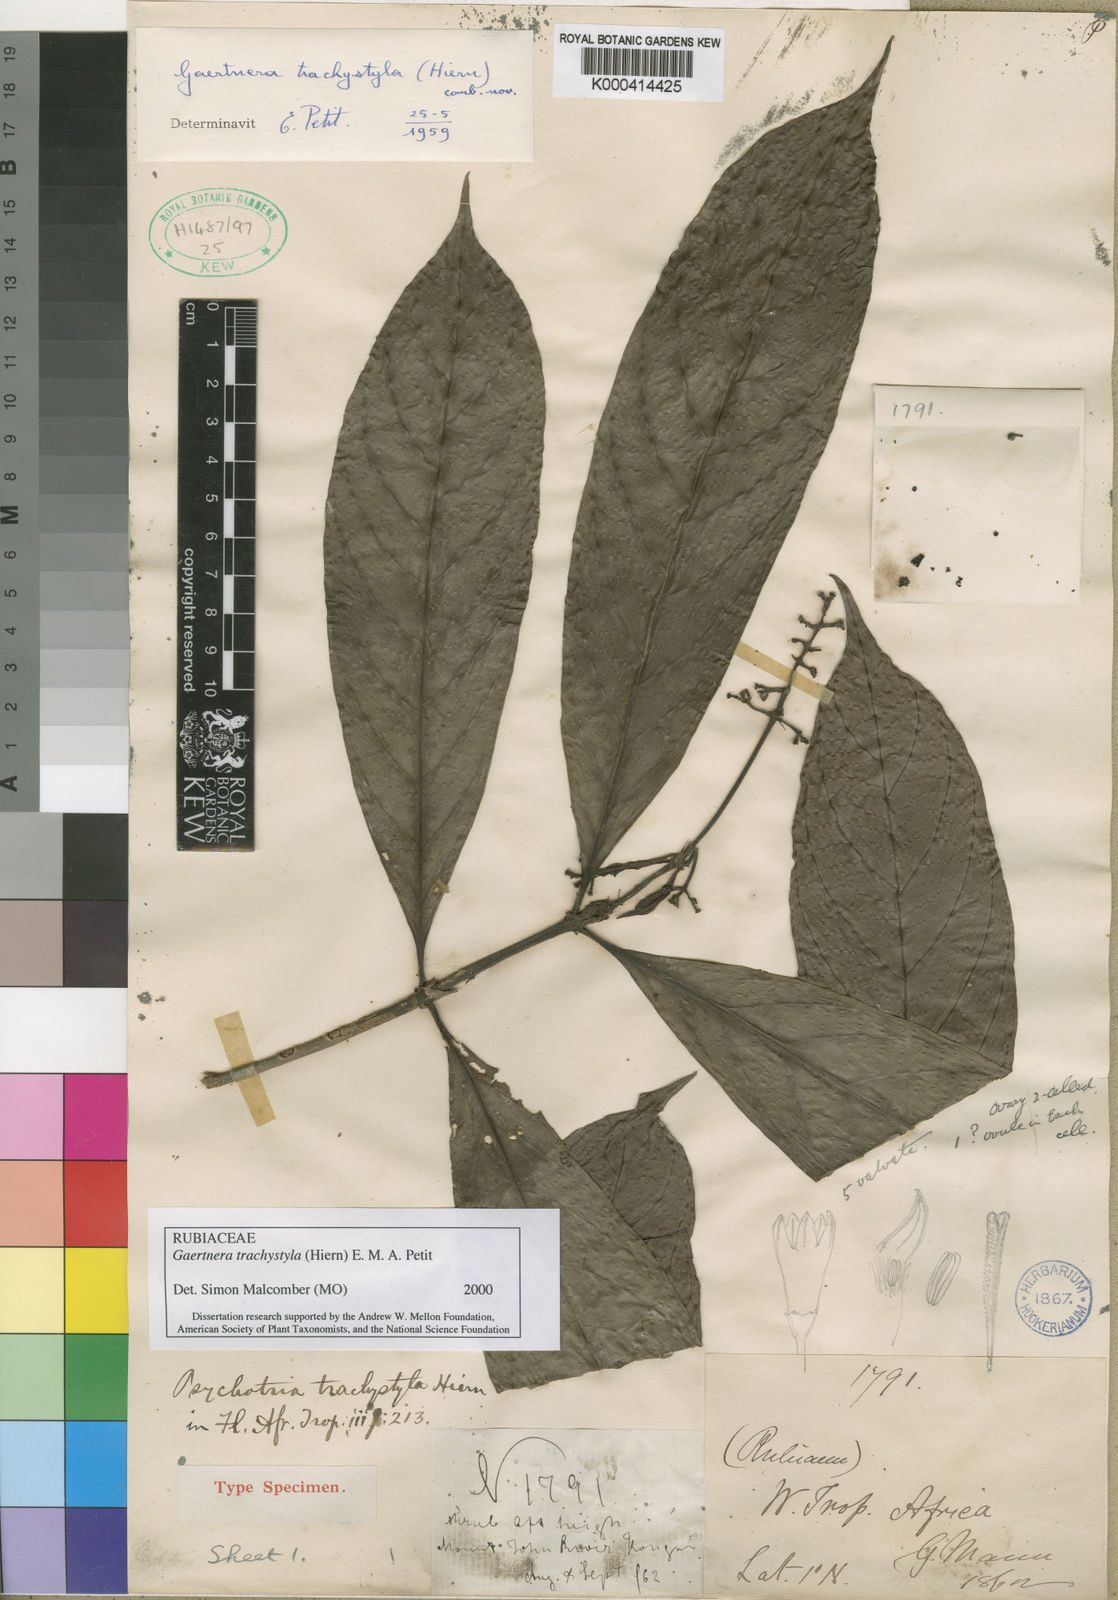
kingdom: Plantae
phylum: Tracheophyta
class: Magnoliopsida
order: Gentianales
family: Rubiaceae
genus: Gaertnera
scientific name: Gaertnera trachystyla
